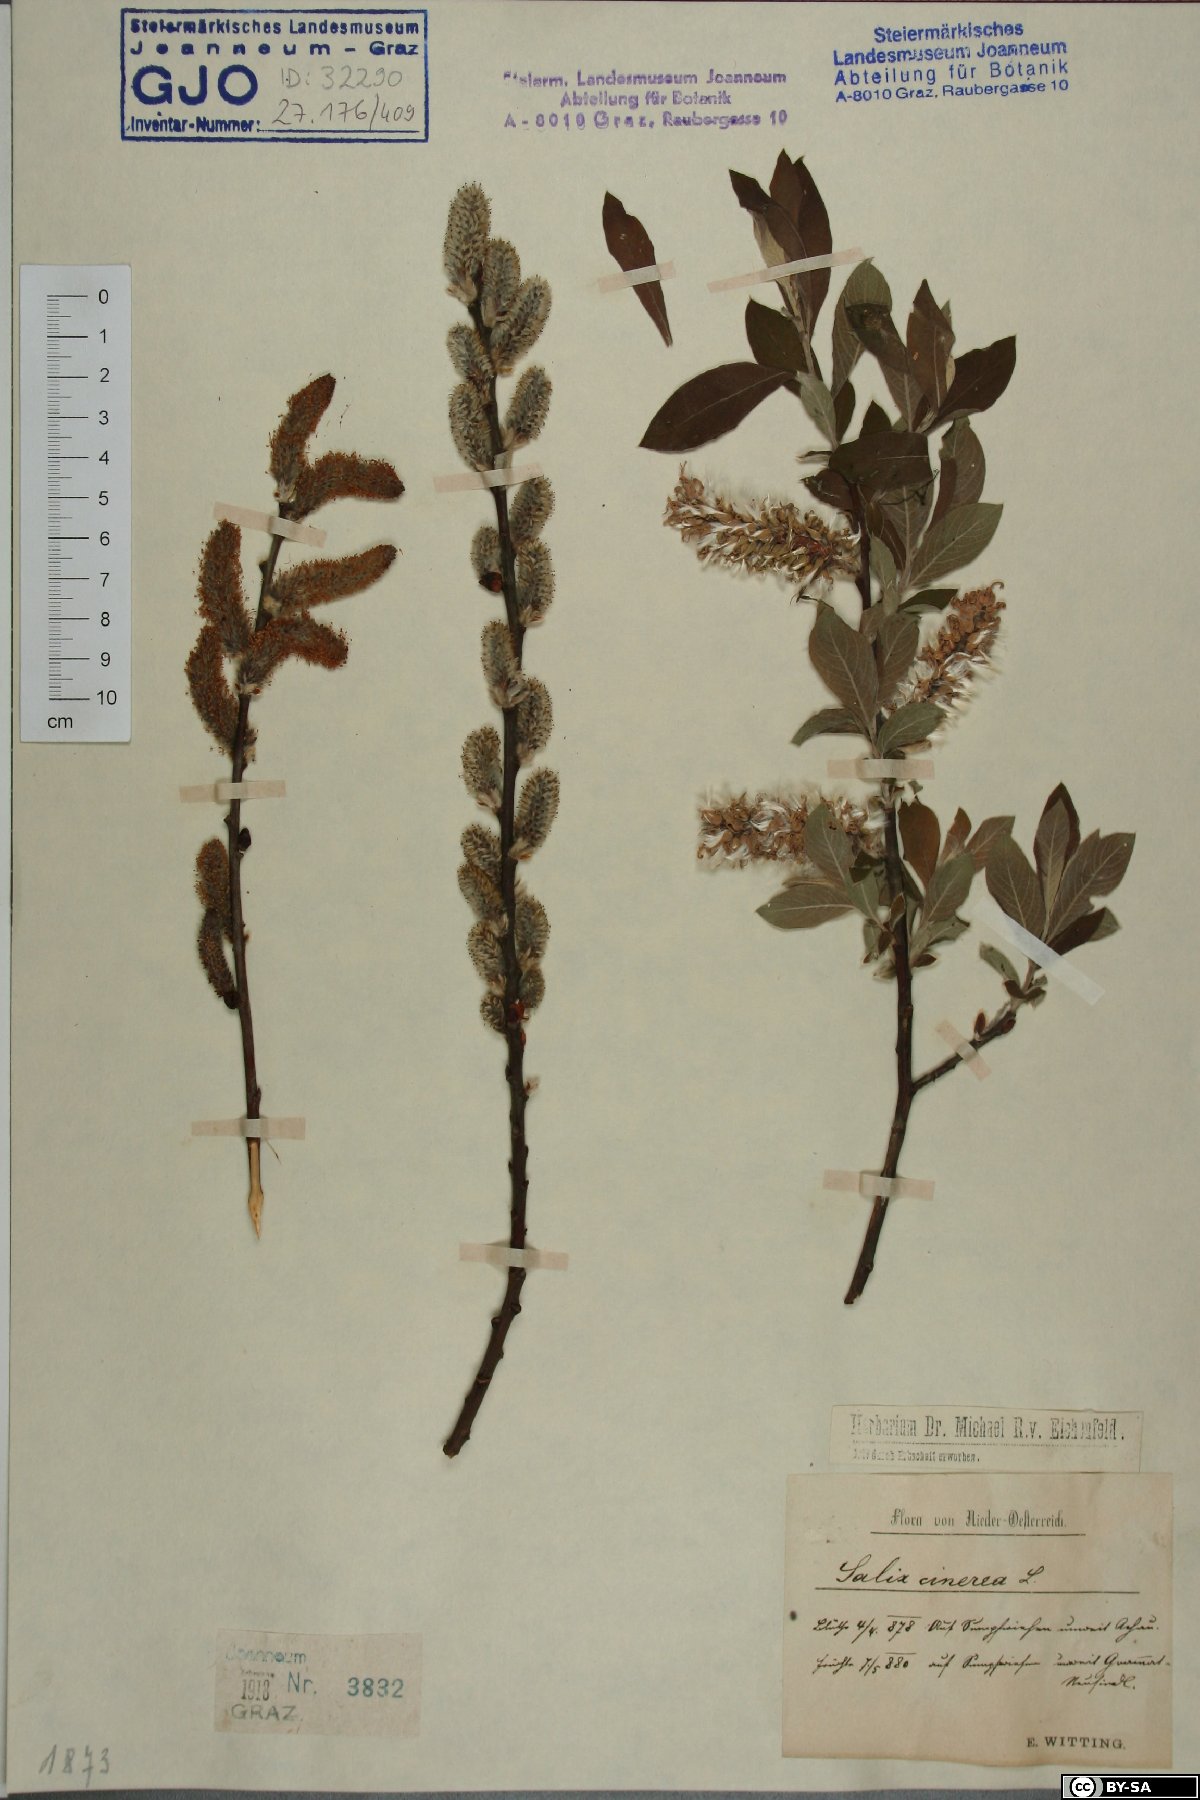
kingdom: Plantae
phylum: Tracheophyta
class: Magnoliopsida
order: Malpighiales
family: Salicaceae
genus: Salix
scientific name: Salix cinerea
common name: Common sallow
